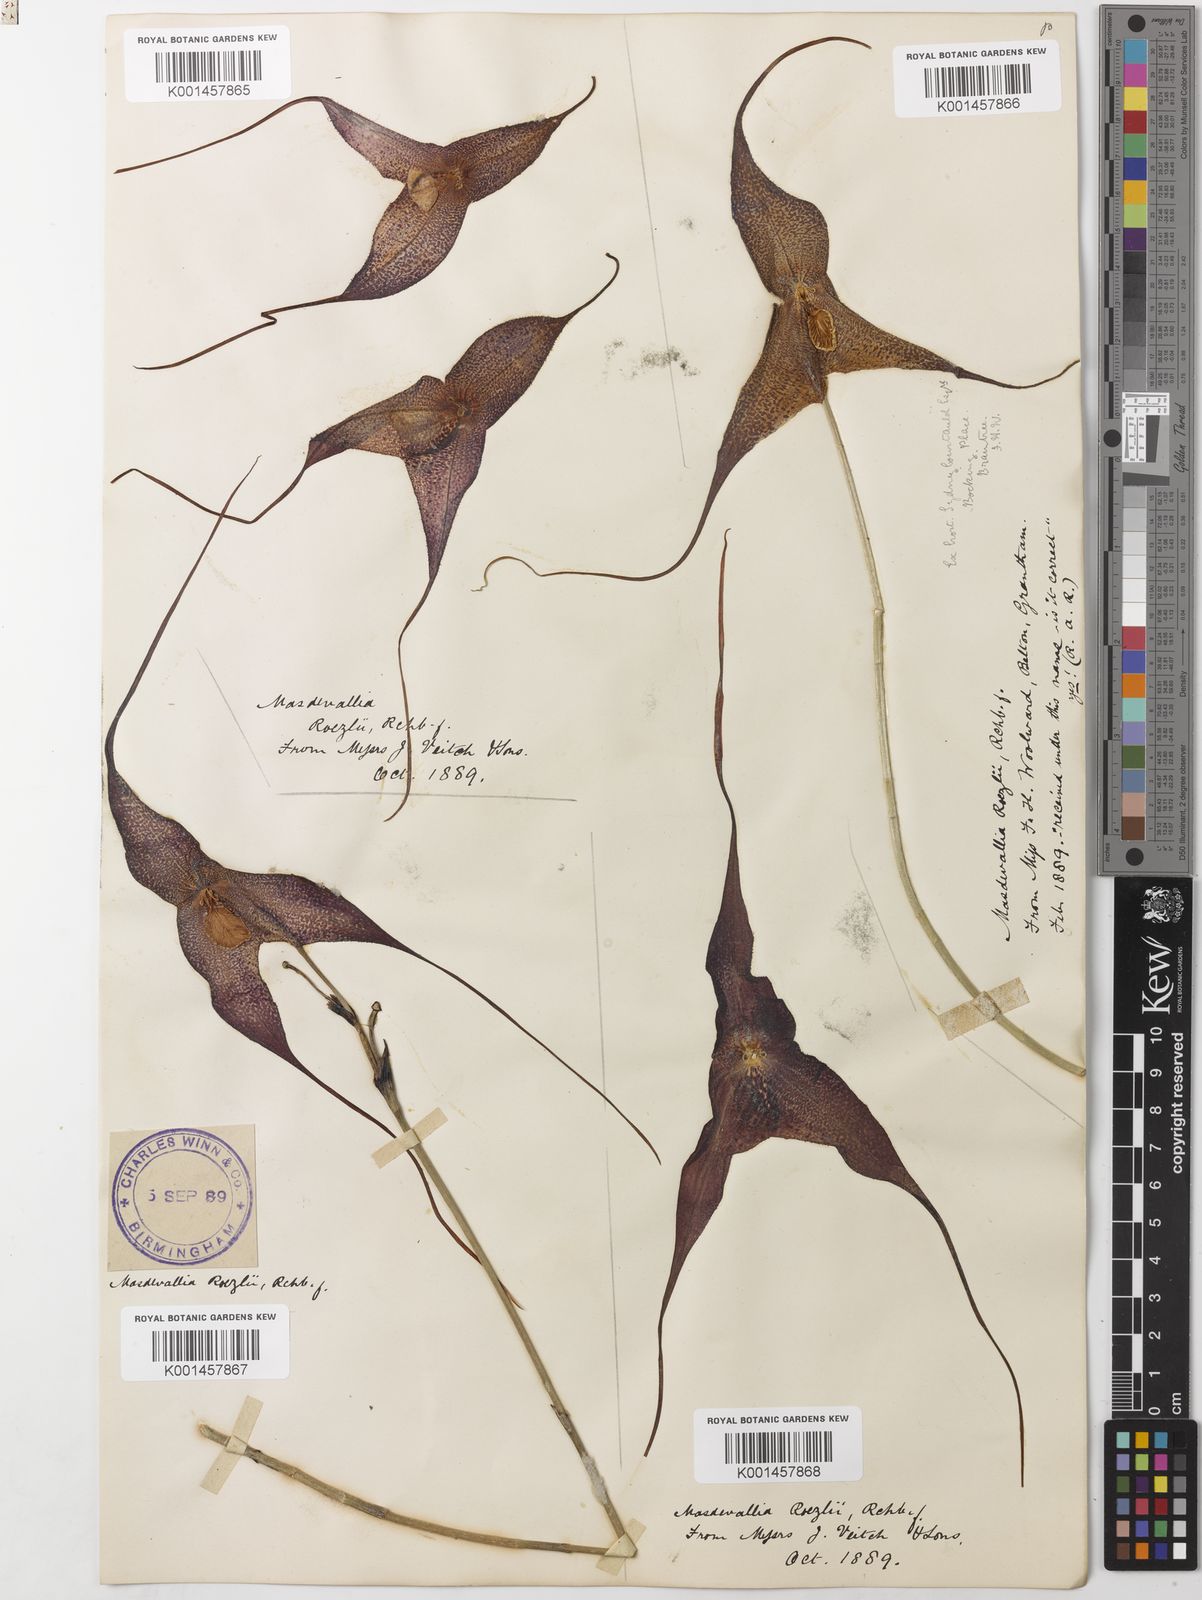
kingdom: Plantae
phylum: Tracheophyta
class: Liliopsida
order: Asparagales
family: Orchidaceae
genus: Dracula
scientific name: Dracula roezlii
